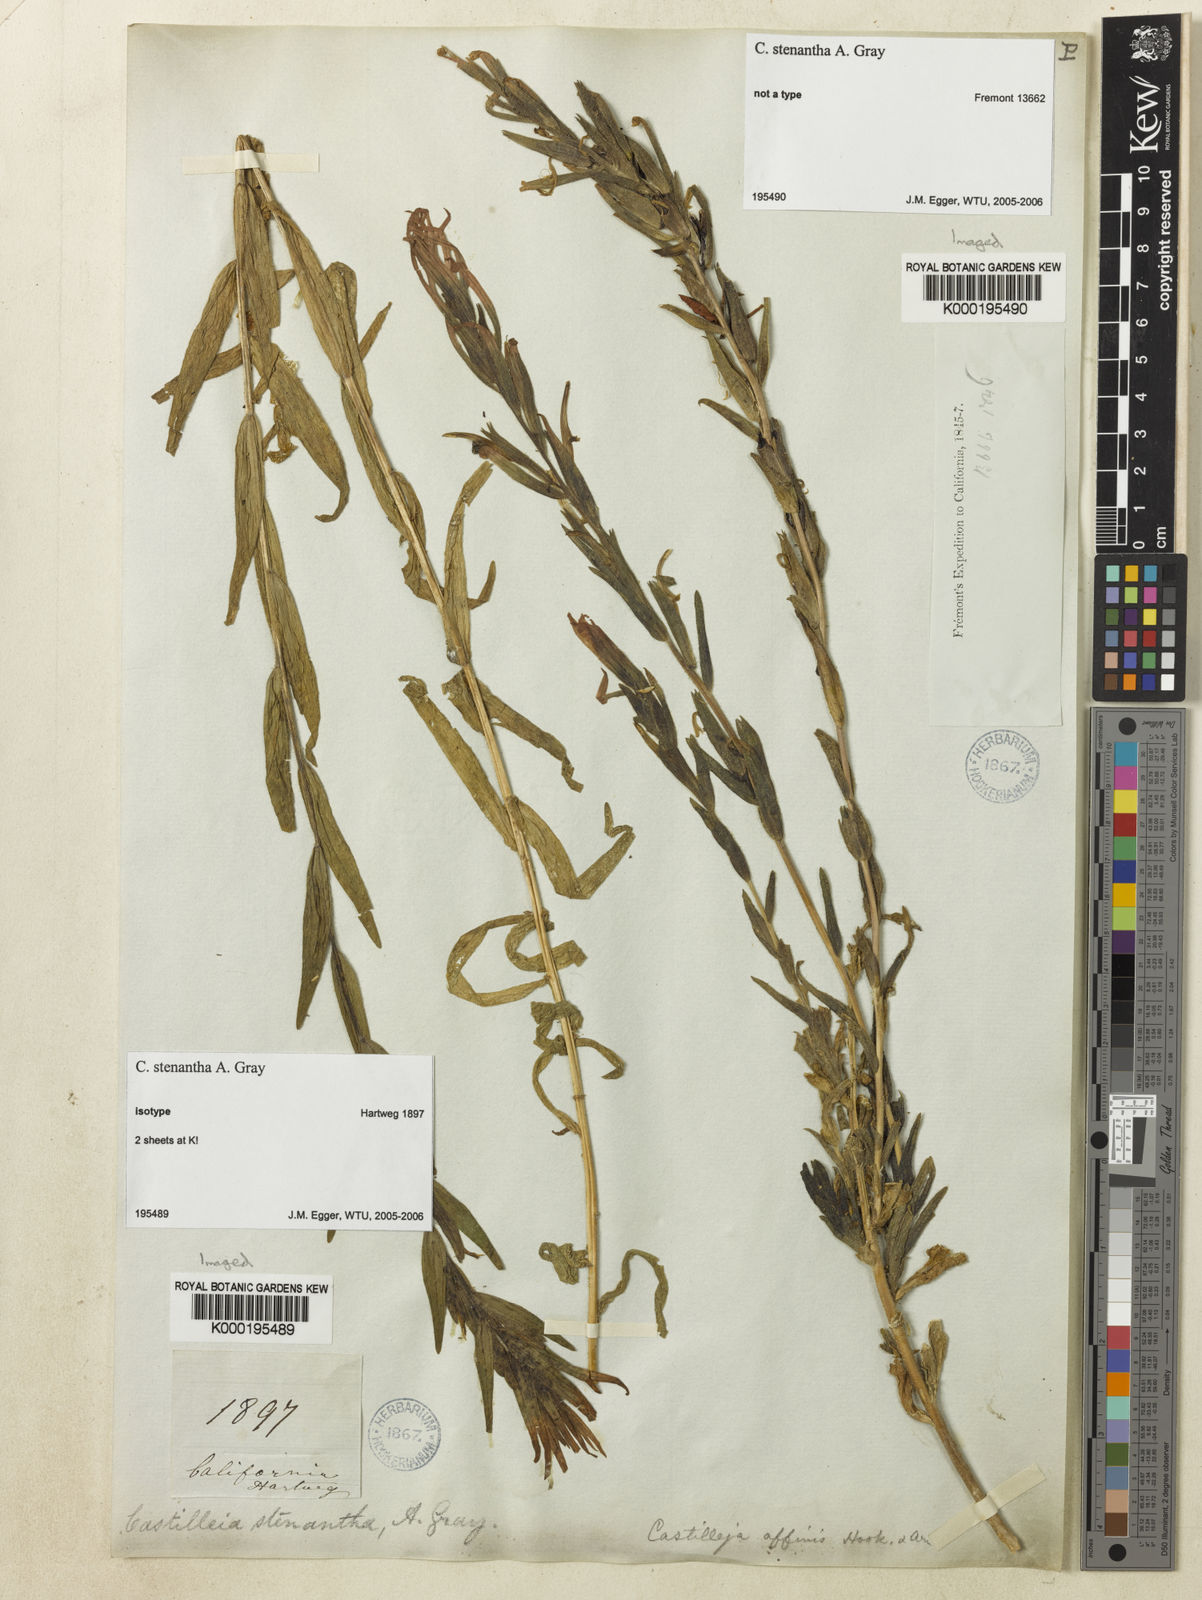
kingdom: Plantae
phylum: Tracheophyta
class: Magnoliopsida
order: Lamiales
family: Orobanchaceae
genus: Castilleja
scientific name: Castilleja minor
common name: Seep paintbrush
